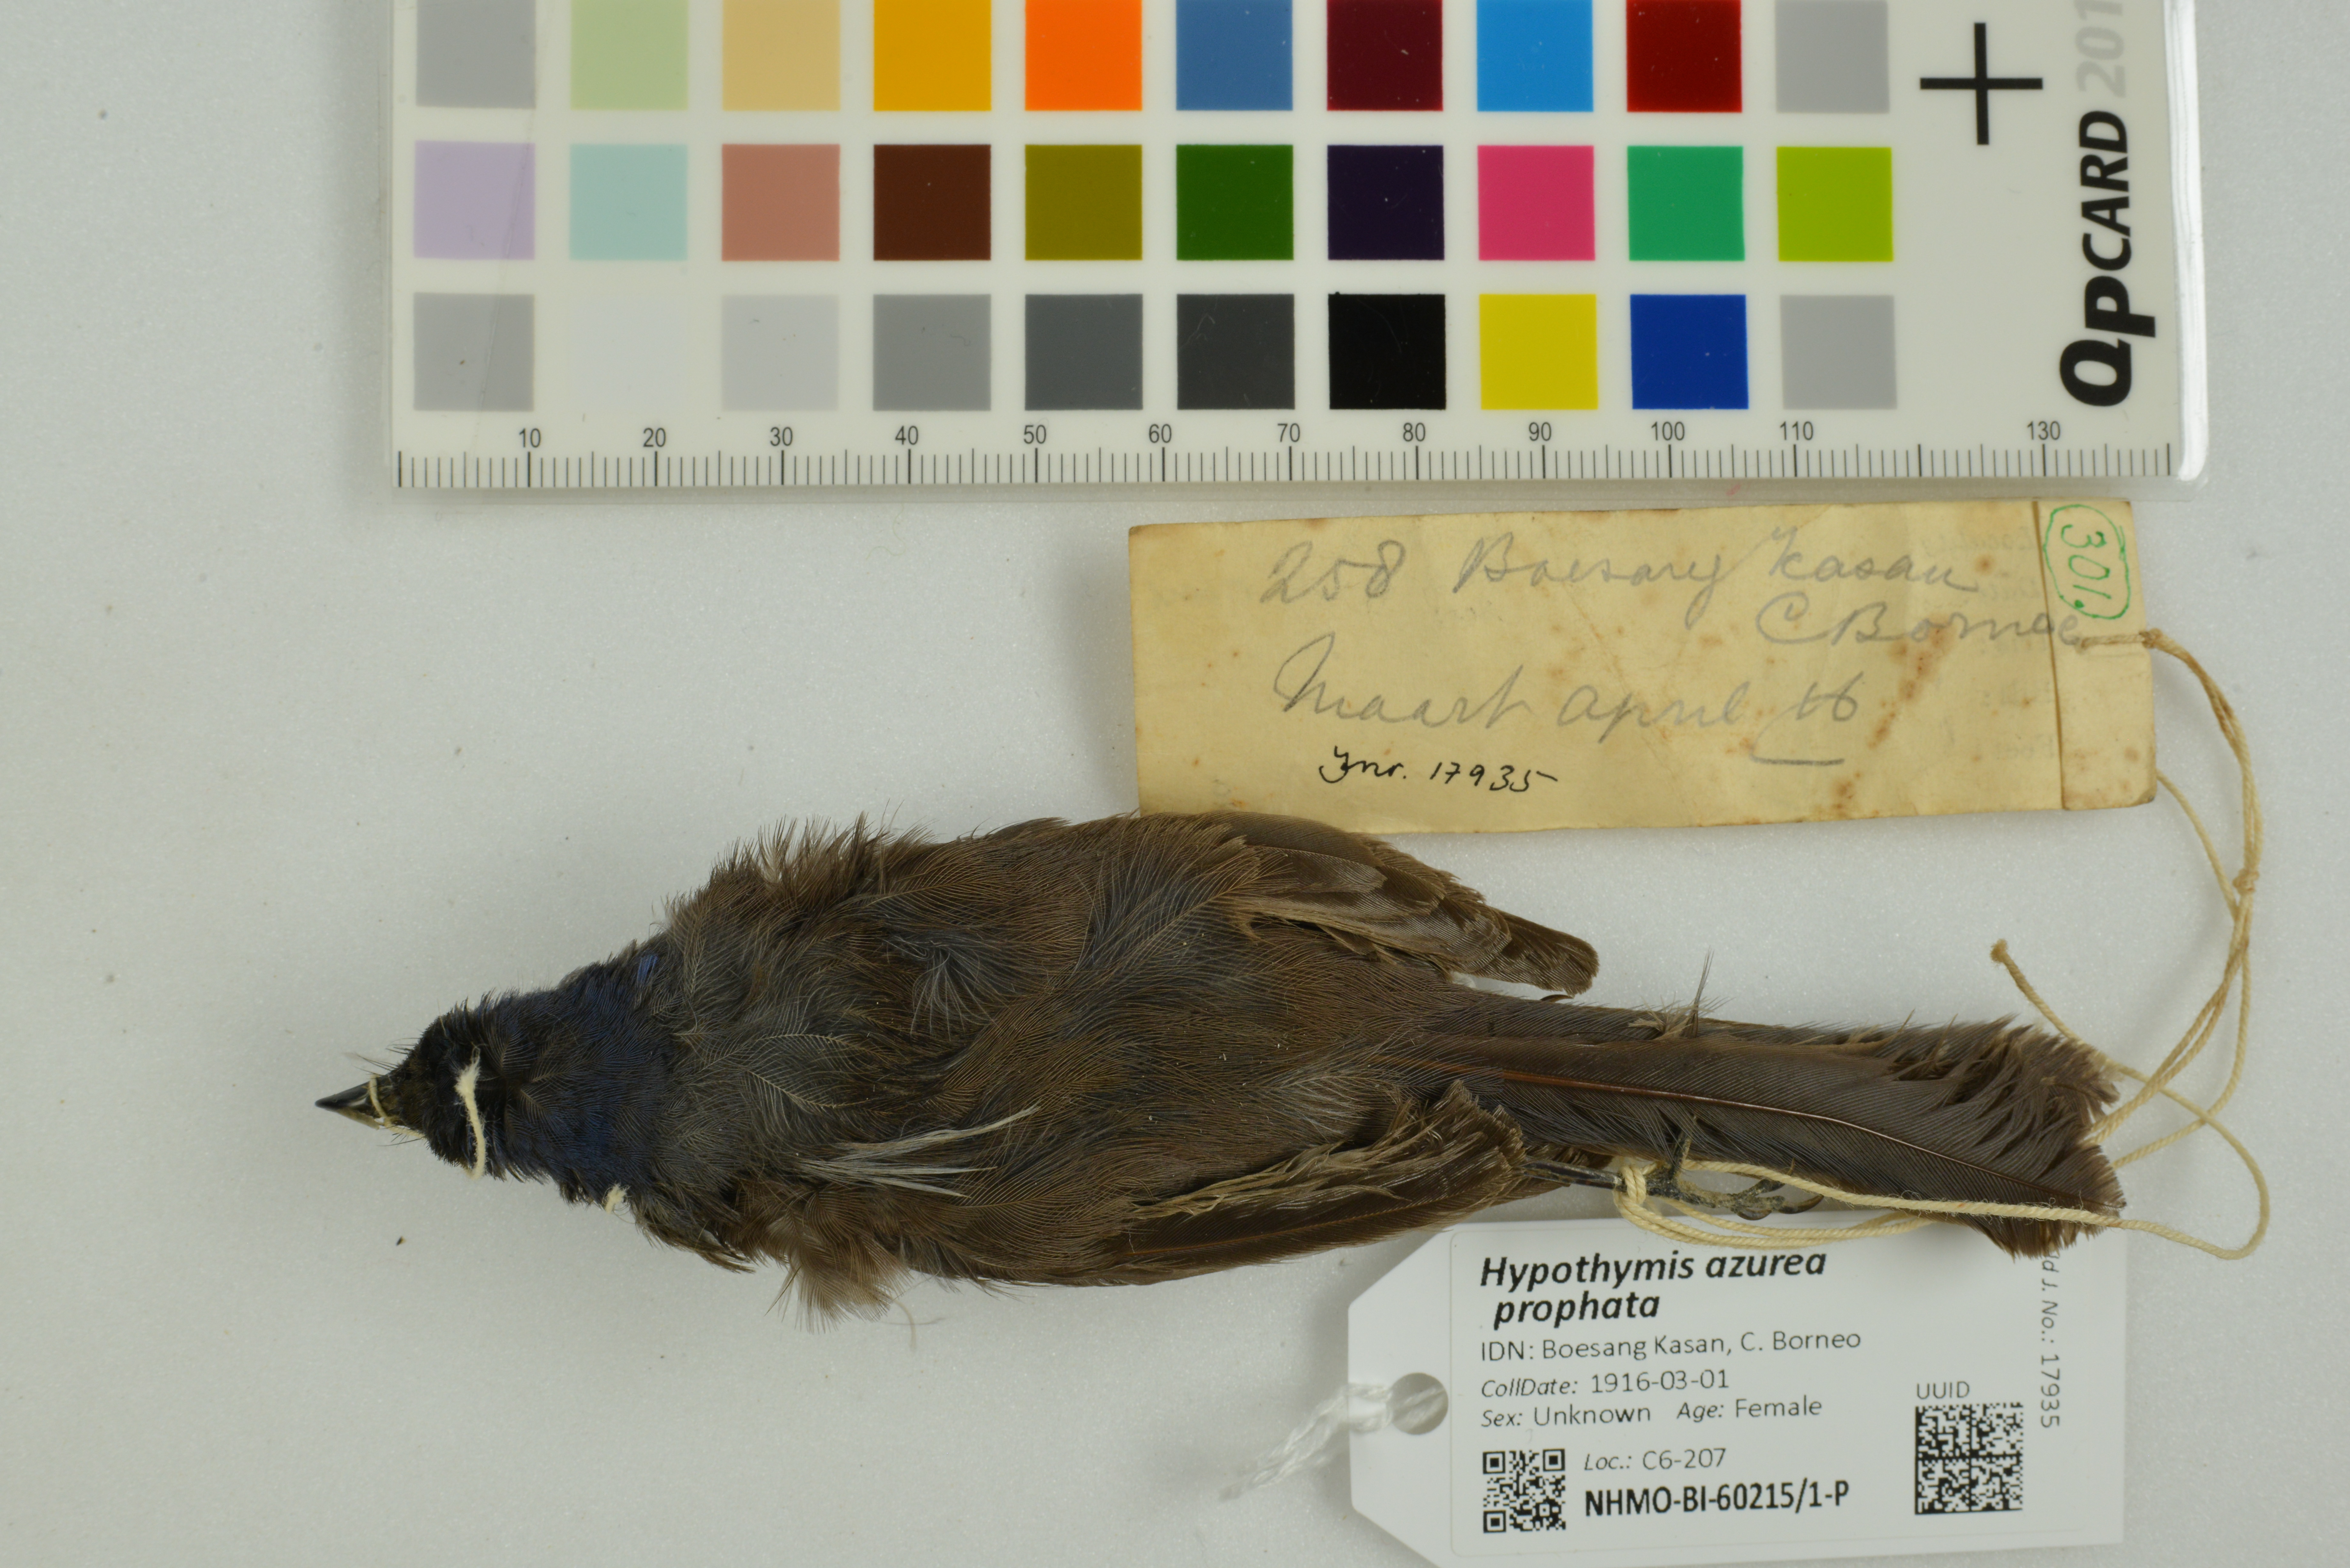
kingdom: Animalia
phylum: Chordata
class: Aves
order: Passeriformes
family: Monarchidae
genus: Hypothymis
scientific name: Hypothymis azurea
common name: Black-naped monarch
